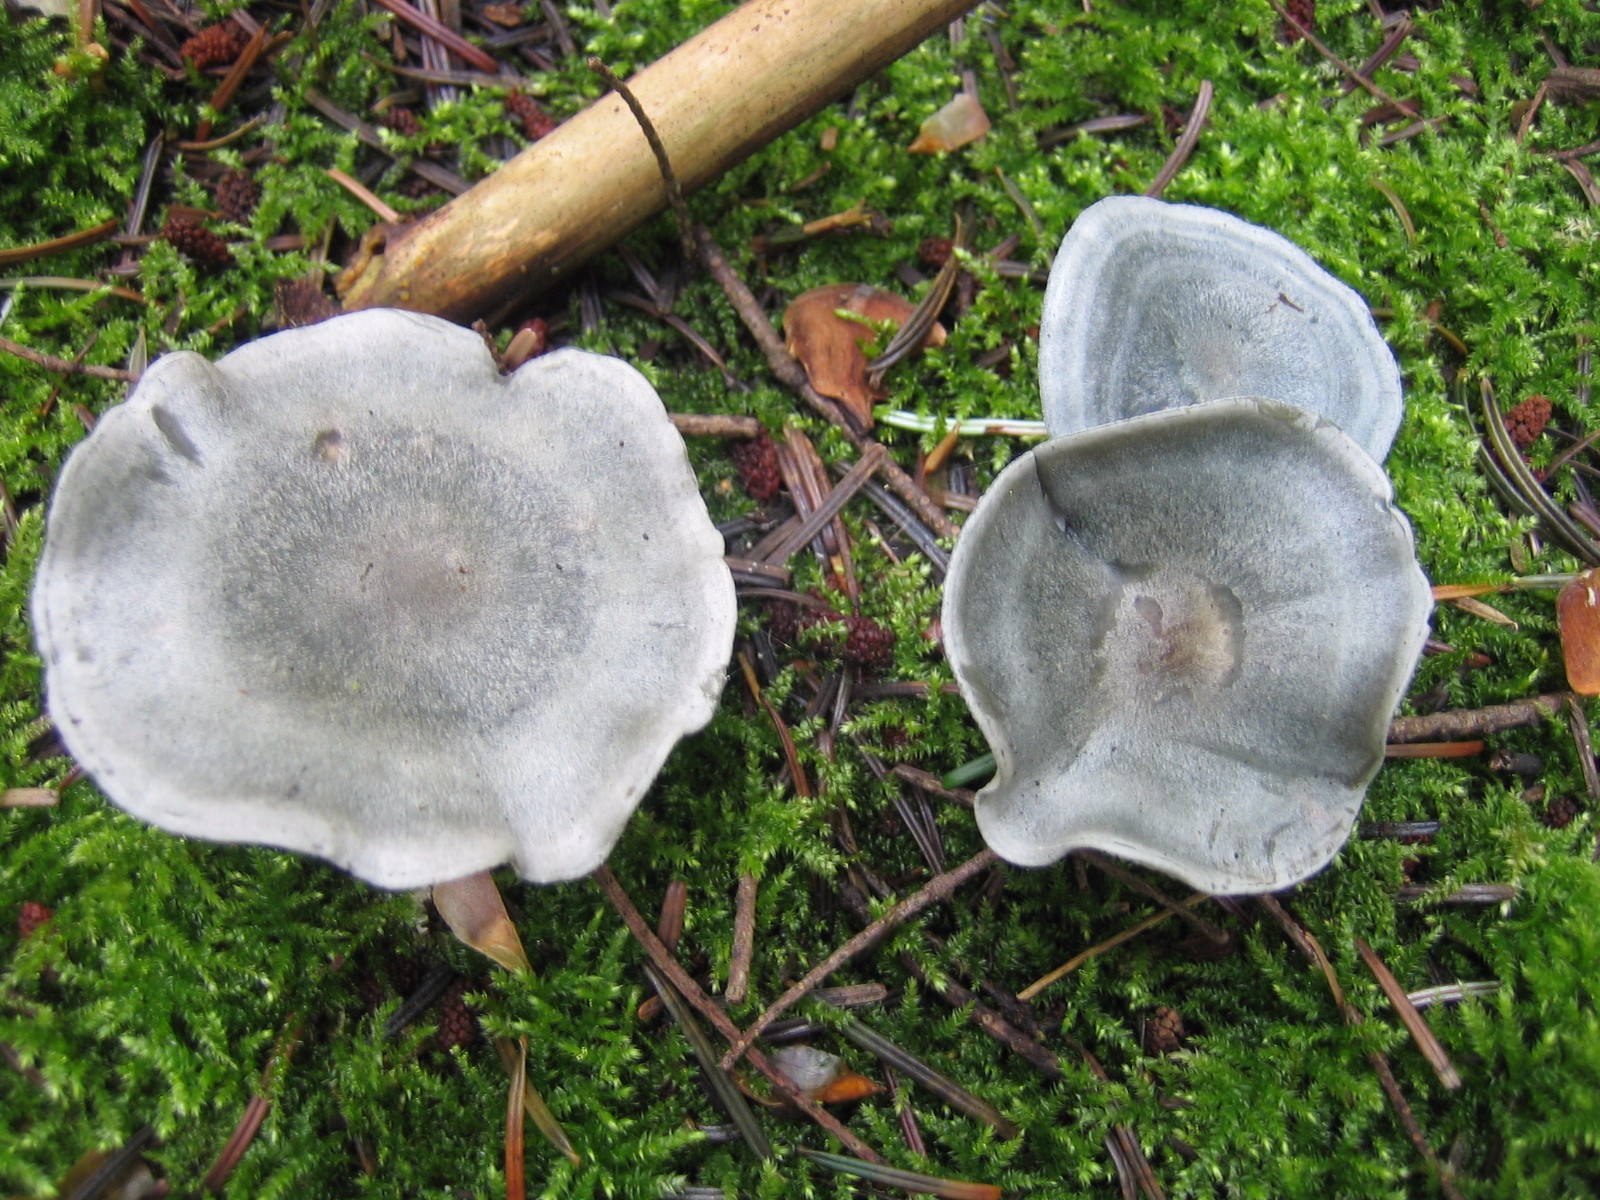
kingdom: Fungi
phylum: Basidiomycota
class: Agaricomycetes
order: Agaricales
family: Tricholomataceae
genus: Clitocybe
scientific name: Clitocybe odora
